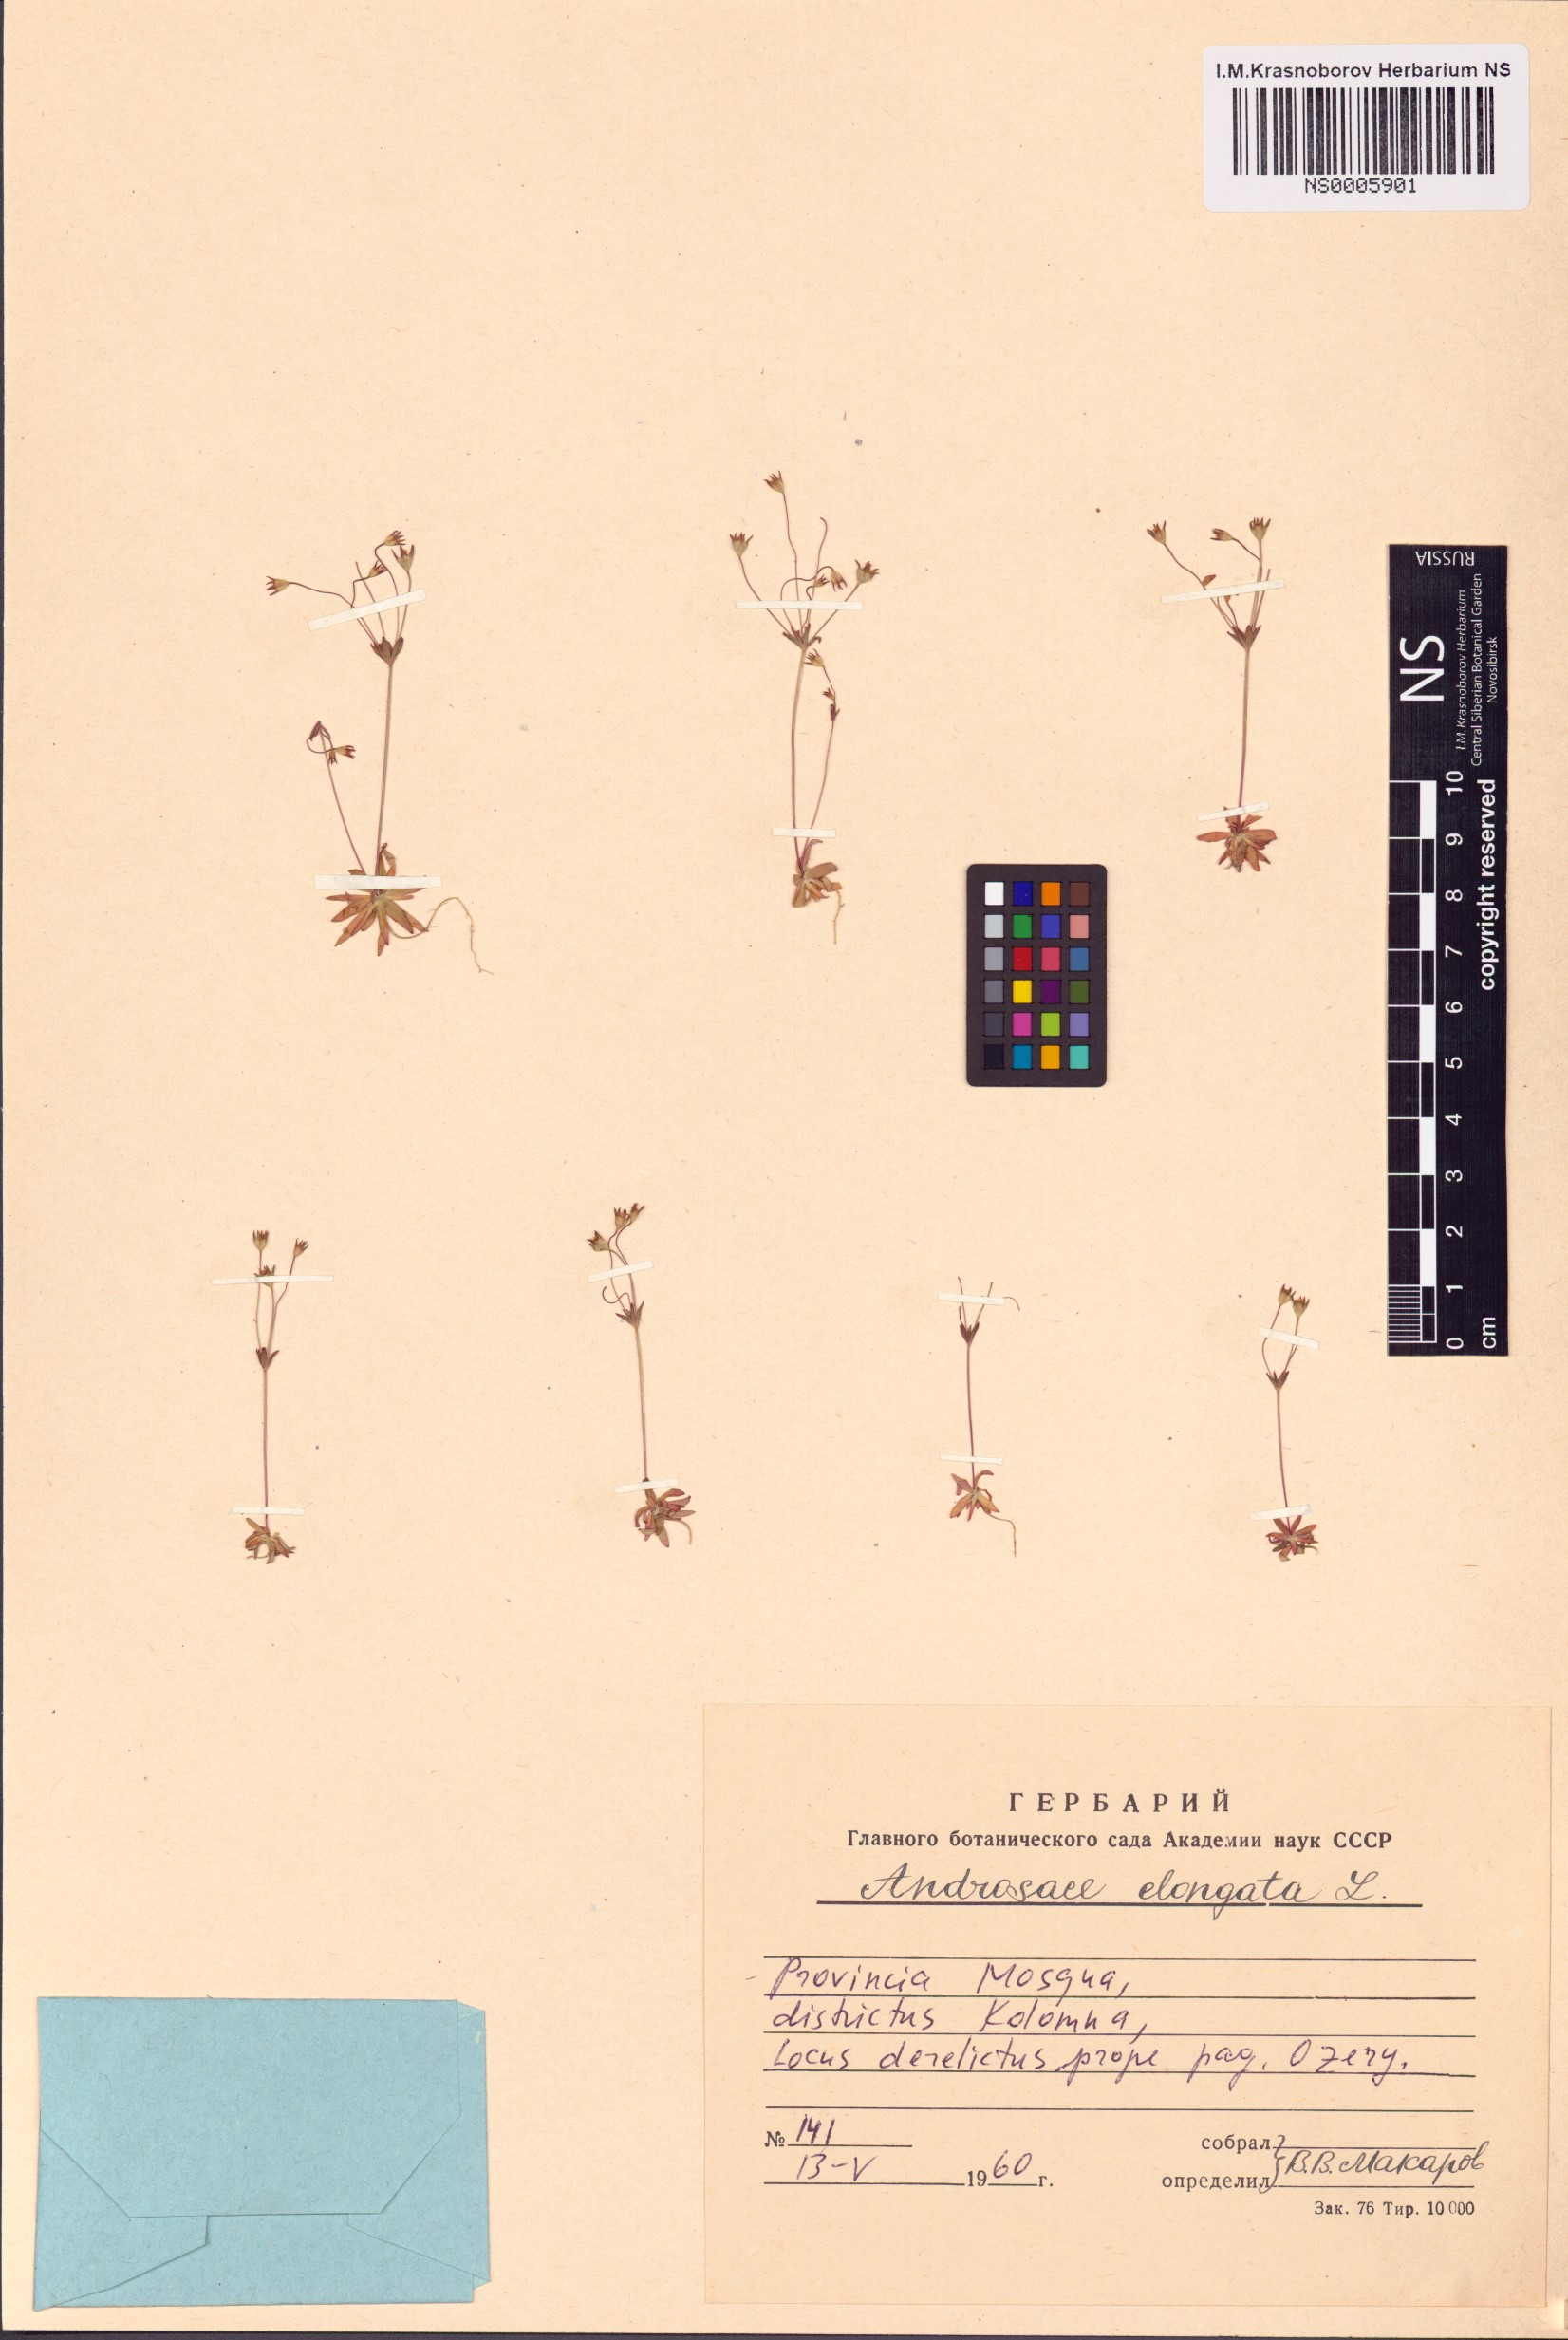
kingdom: Plantae
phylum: Tracheophyta
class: Magnoliopsida
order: Ericales
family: Primulaceae
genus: Androsace
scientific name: Androsace elongata
